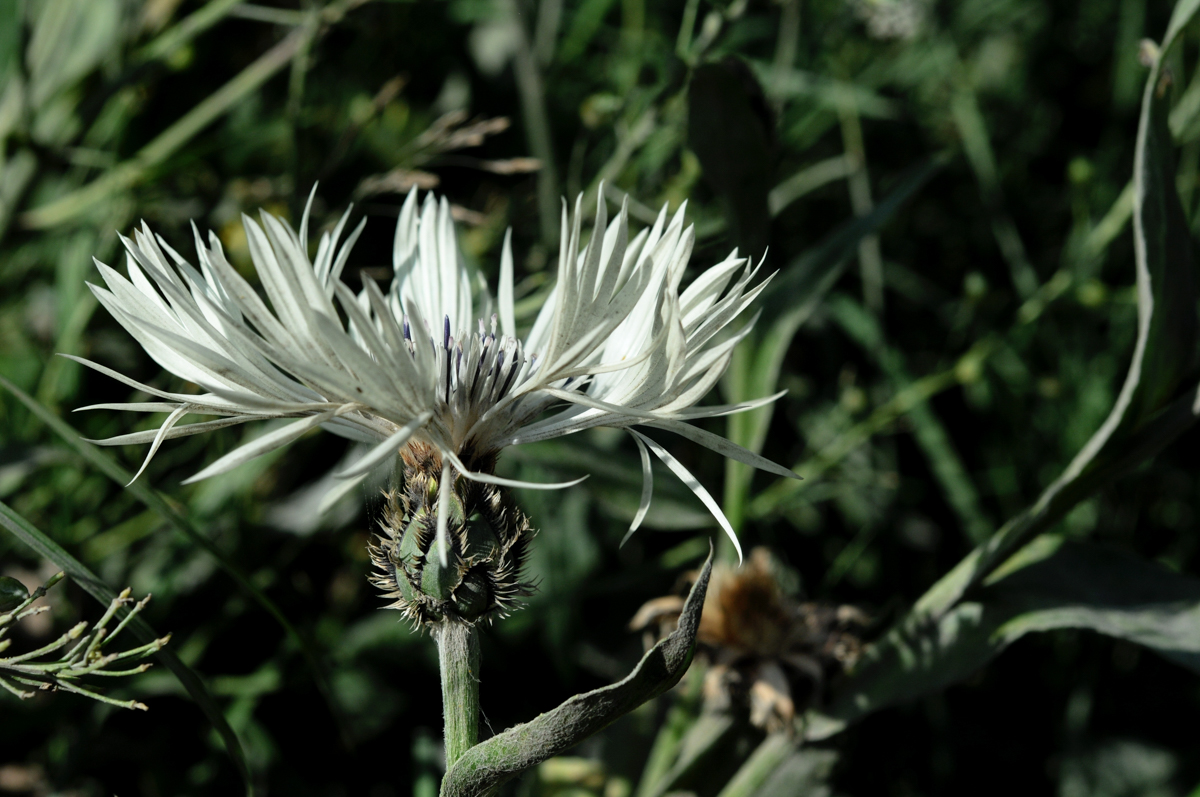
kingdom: Plantae
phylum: Tracheophyta
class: Magnoliopsida
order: Asterales
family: Asteraceae
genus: Centaurea
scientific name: Centaurea cheiranthifolia
